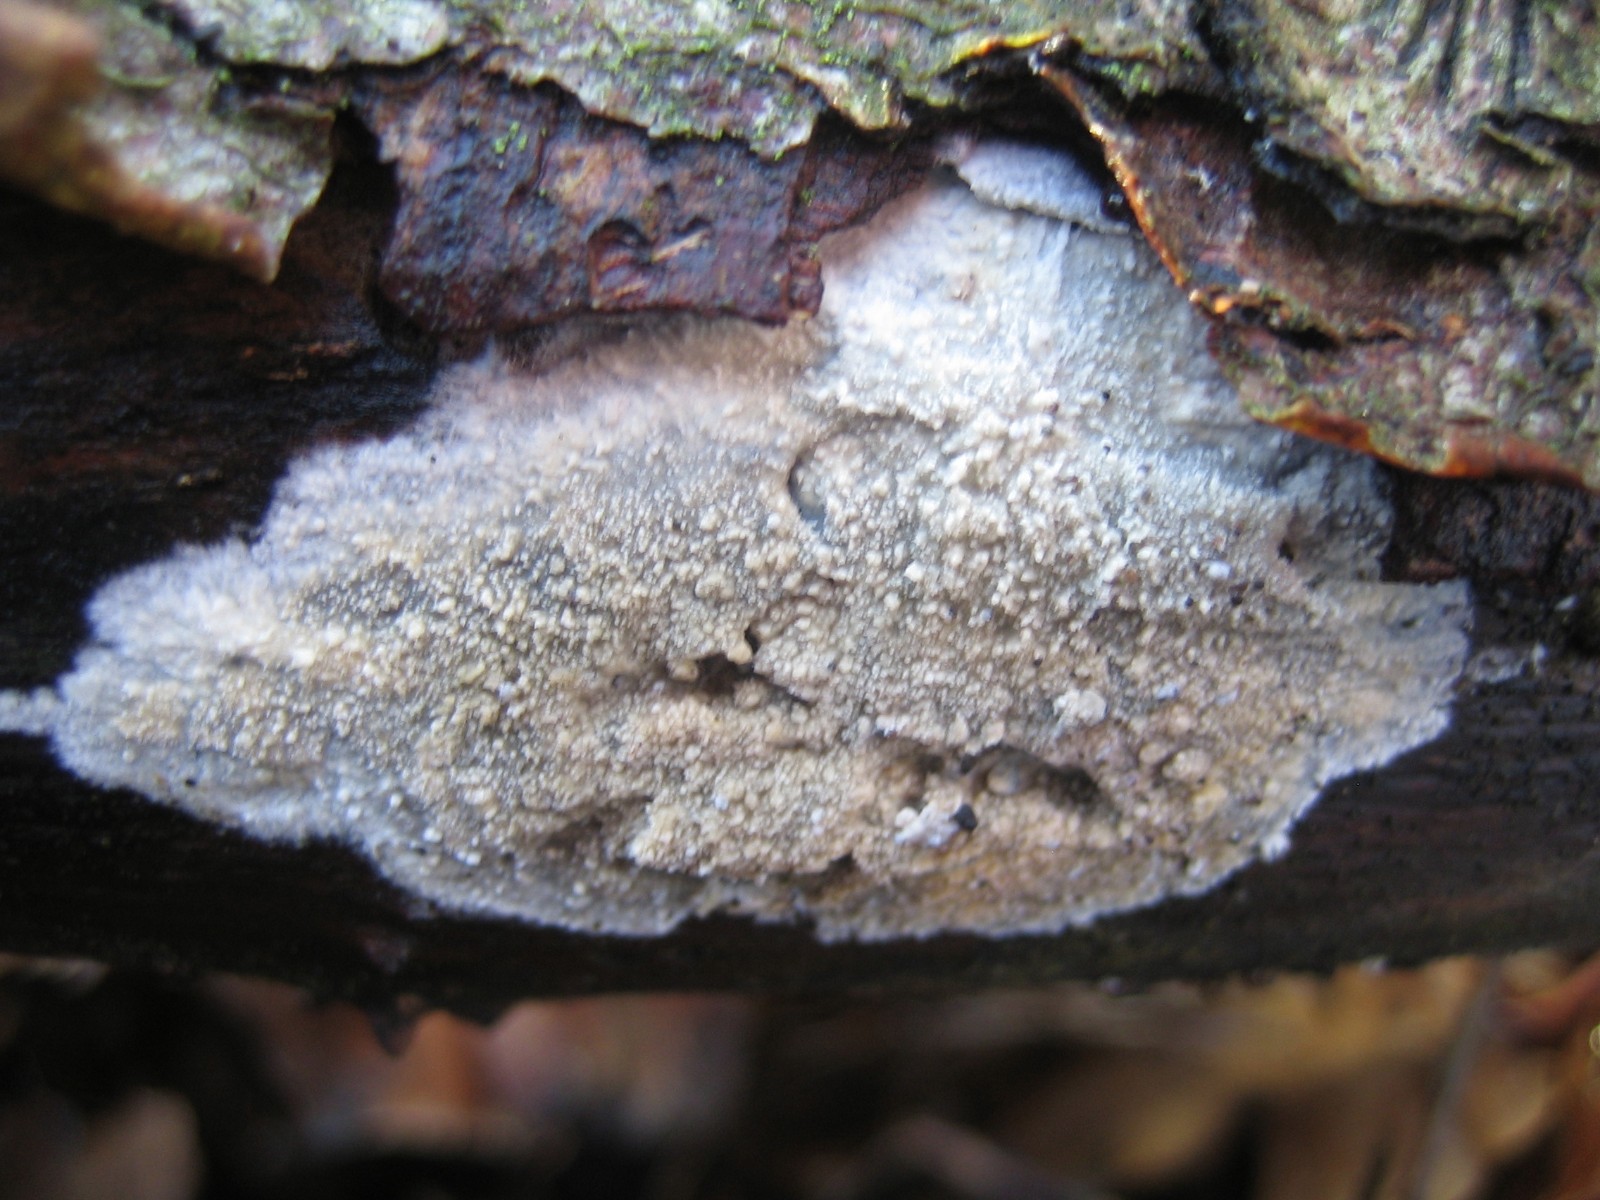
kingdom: Fungi
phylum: Basidiomycota
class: Agaricomycetes
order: Corticiales
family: Corticiaceae
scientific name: Corticiaceae
